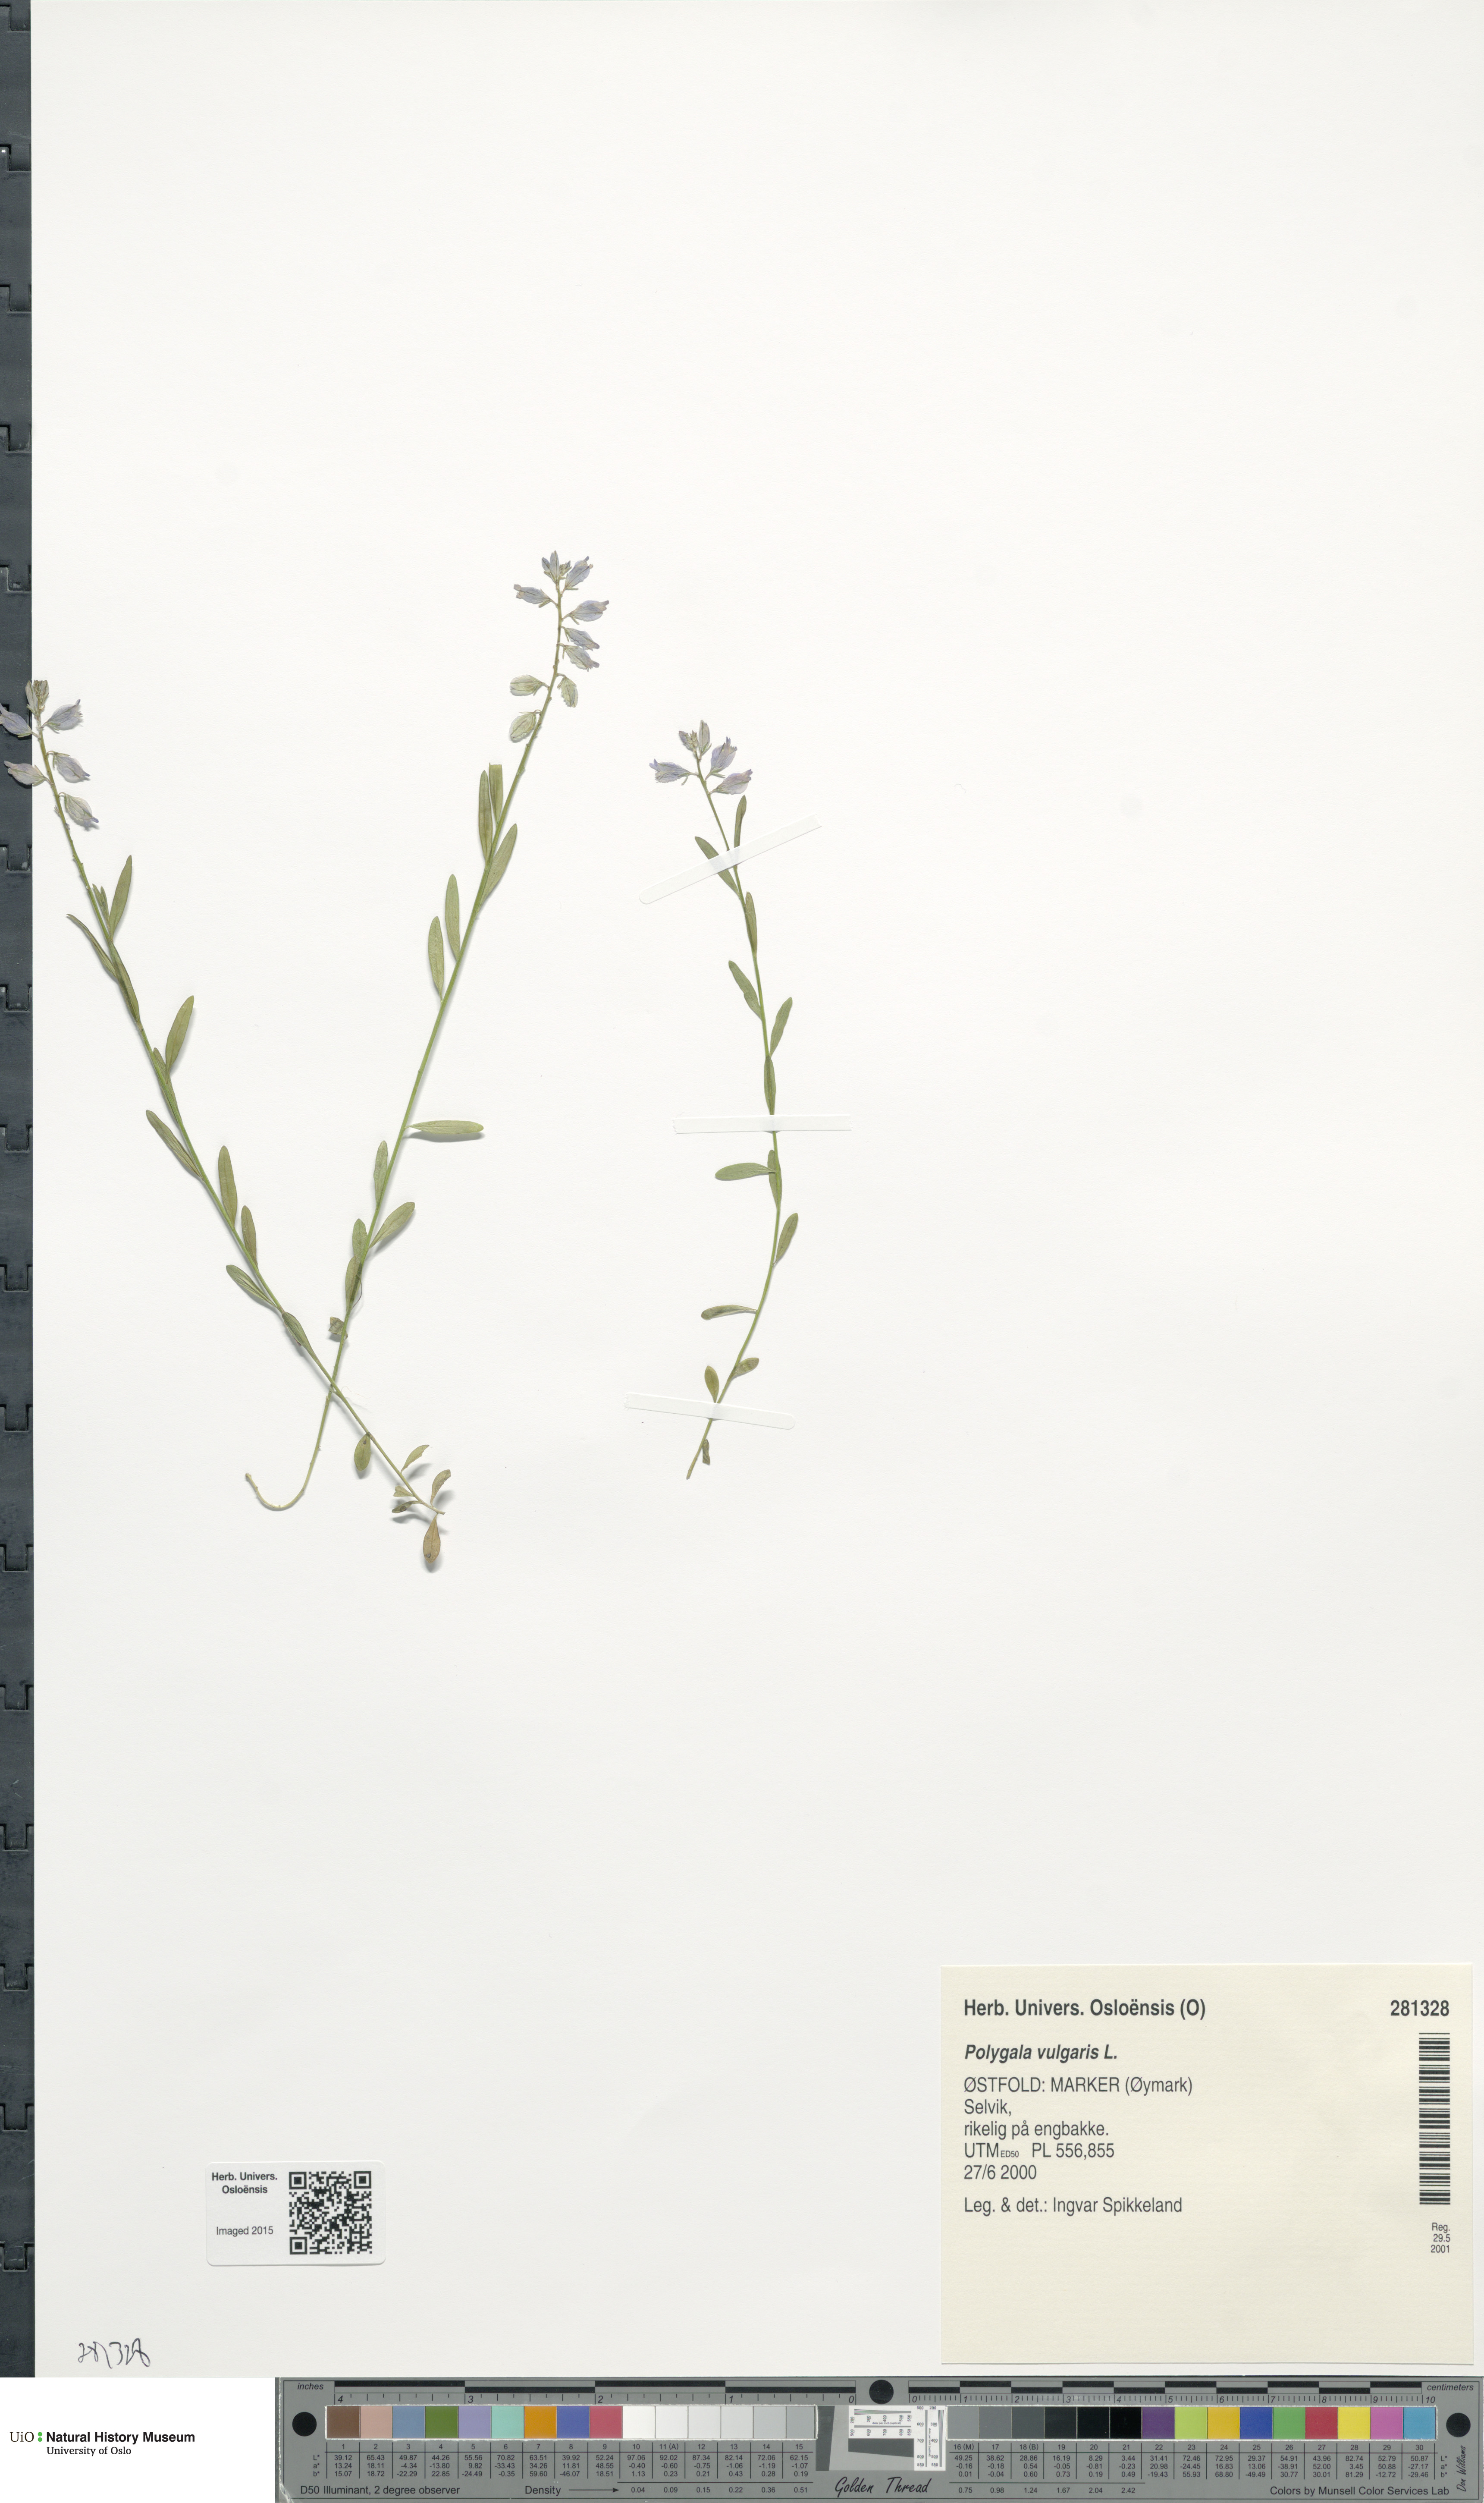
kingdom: Plantae
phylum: Tracheophyta
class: Magnoliopsida
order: Fabales
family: Polygalaceae
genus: Polygala
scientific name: Polygala vulgaris
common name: Common milkwort
